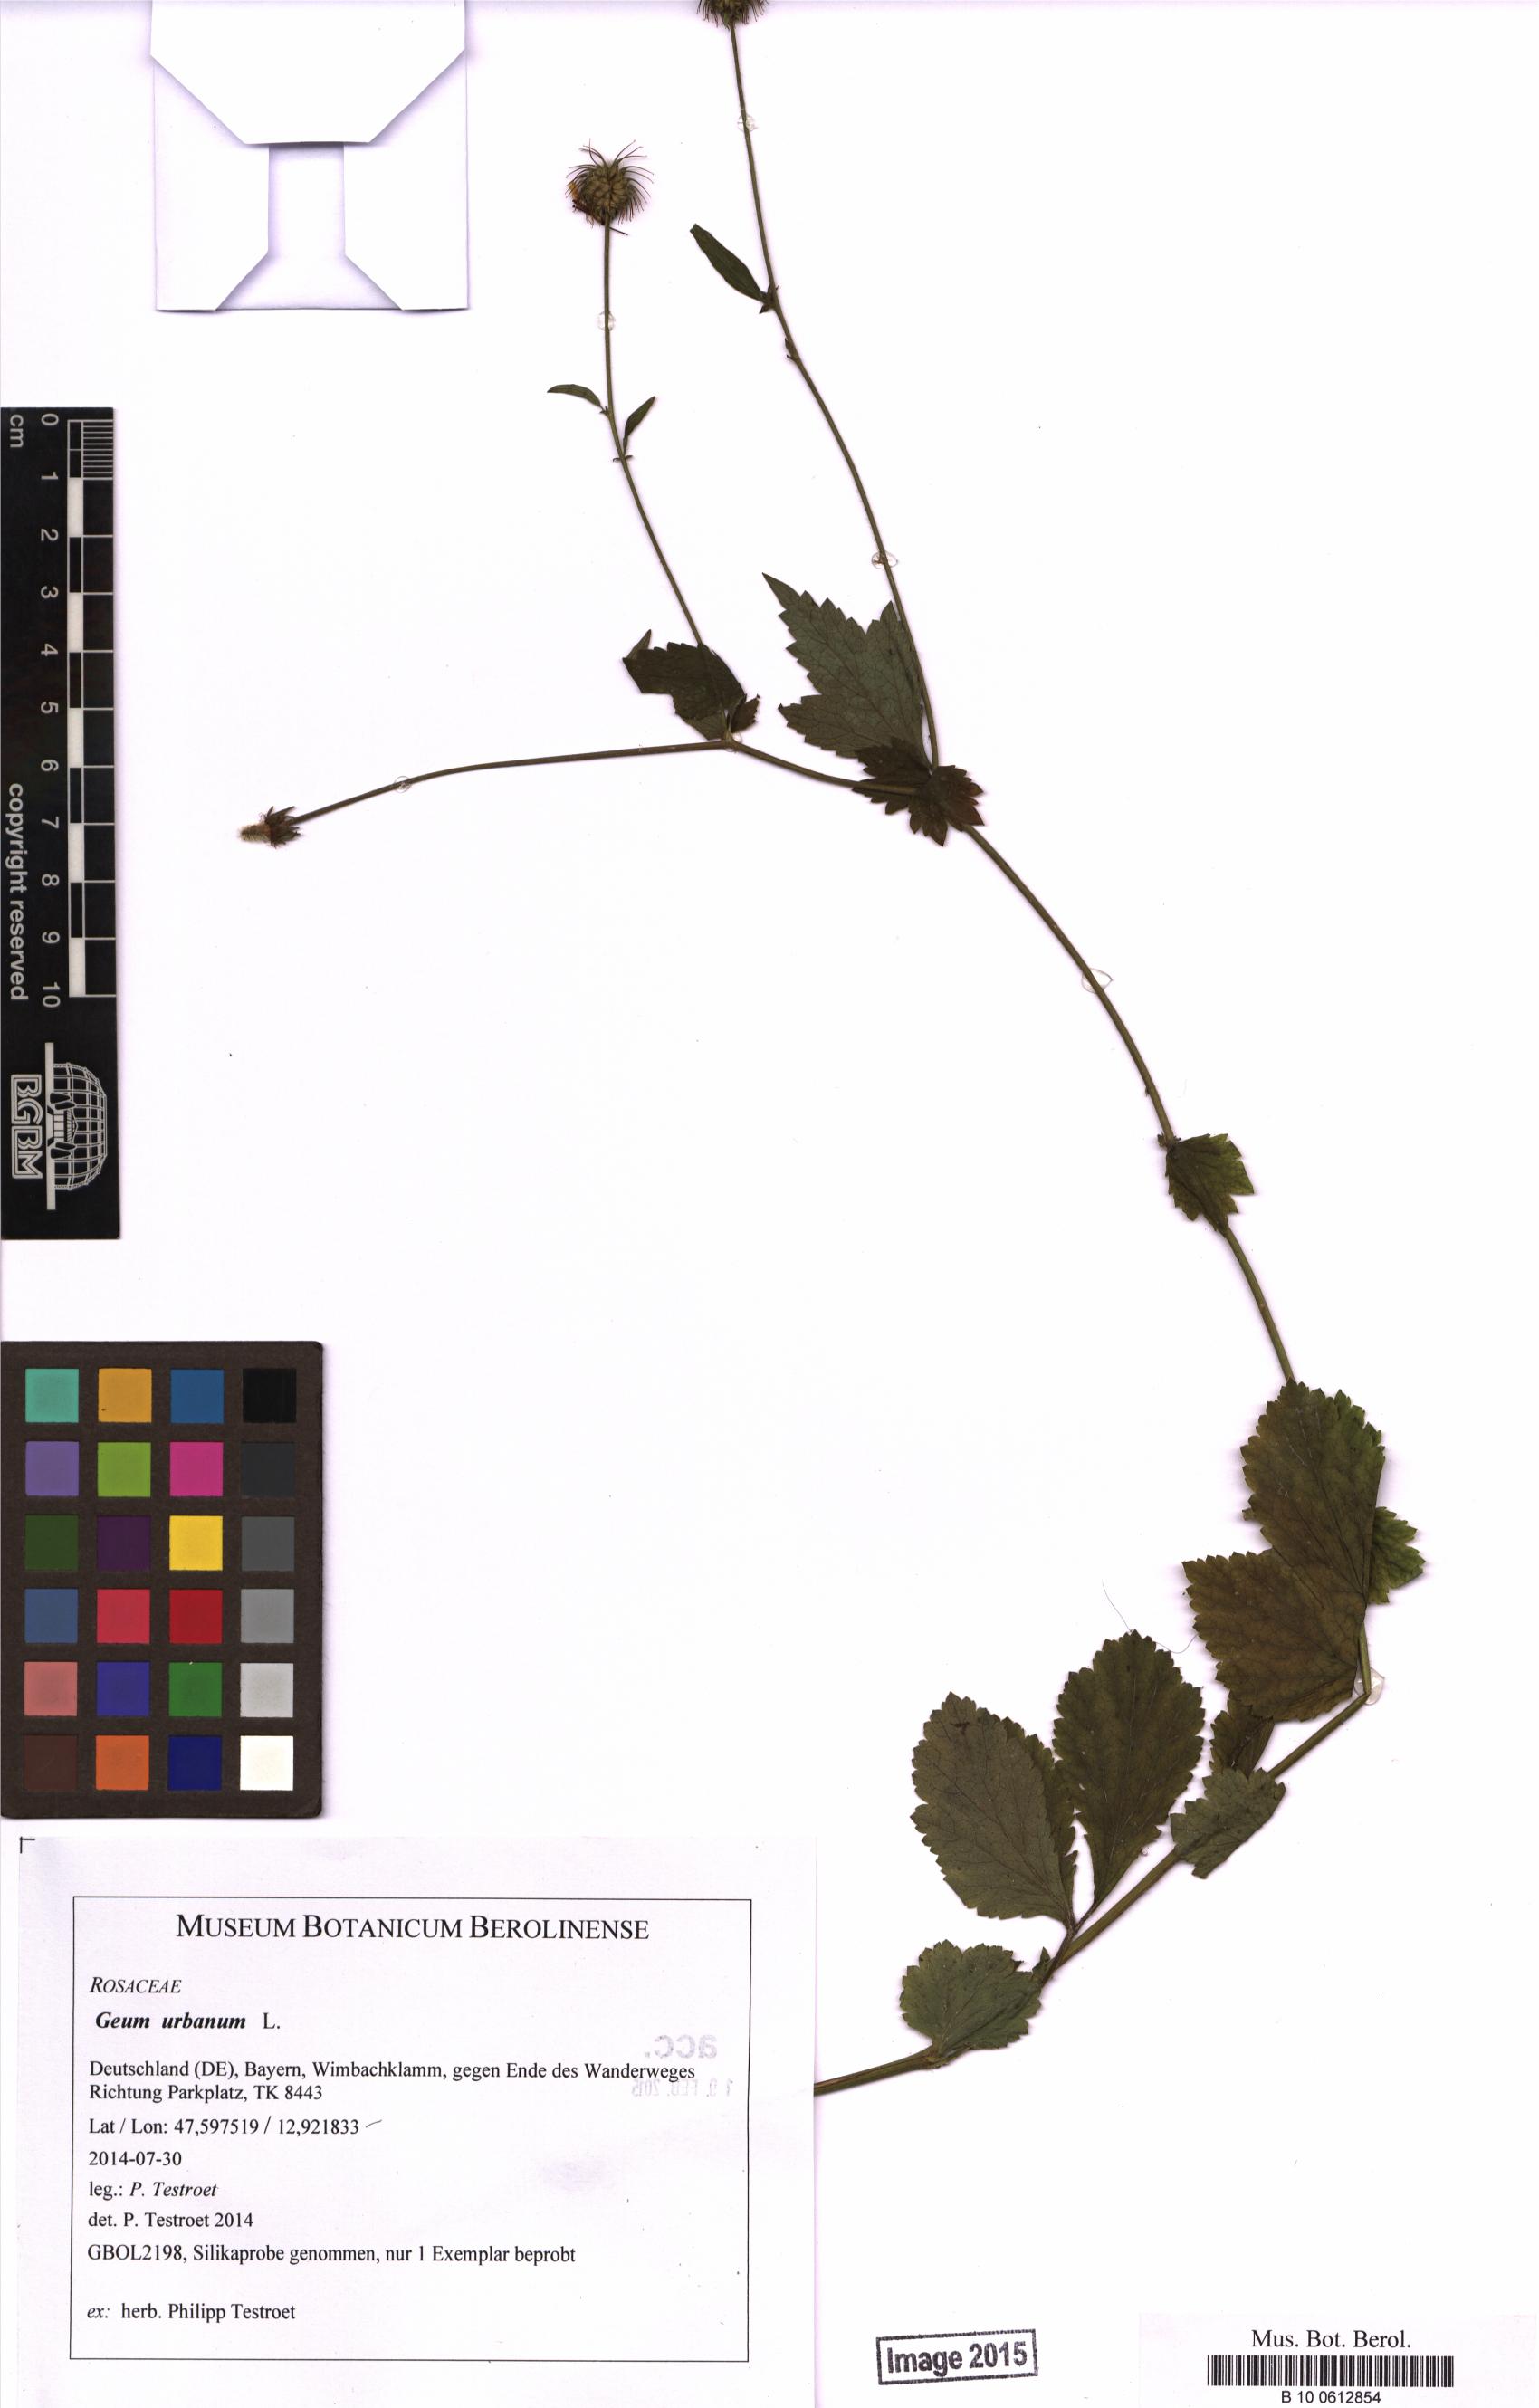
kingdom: Plantae
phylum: Tracheophyta
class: Magnoliopsida
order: Rosales
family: Rosaceae
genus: Geum
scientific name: Geum urbanum
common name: Wood avens
